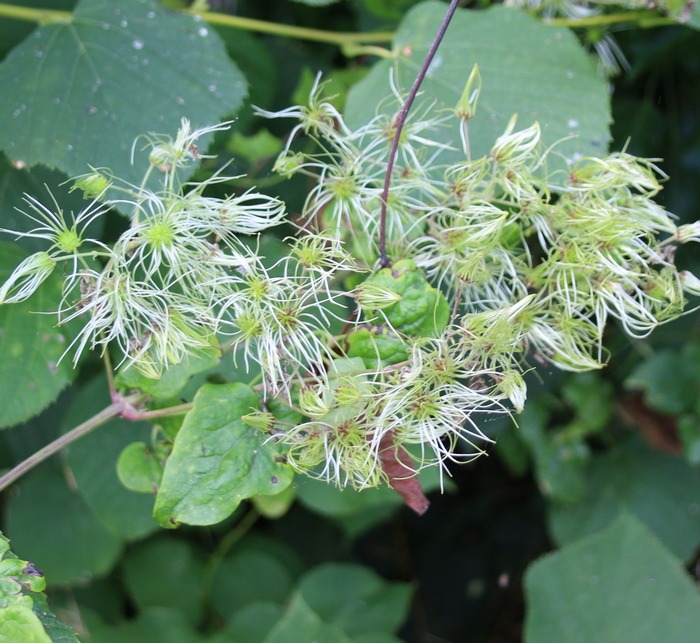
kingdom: Plantae
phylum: Tracheophyta
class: Magnoliopsida
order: Ranunculales
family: Ranunculaceae
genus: Clematis
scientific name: Clematis vitalba
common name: Skovranke
